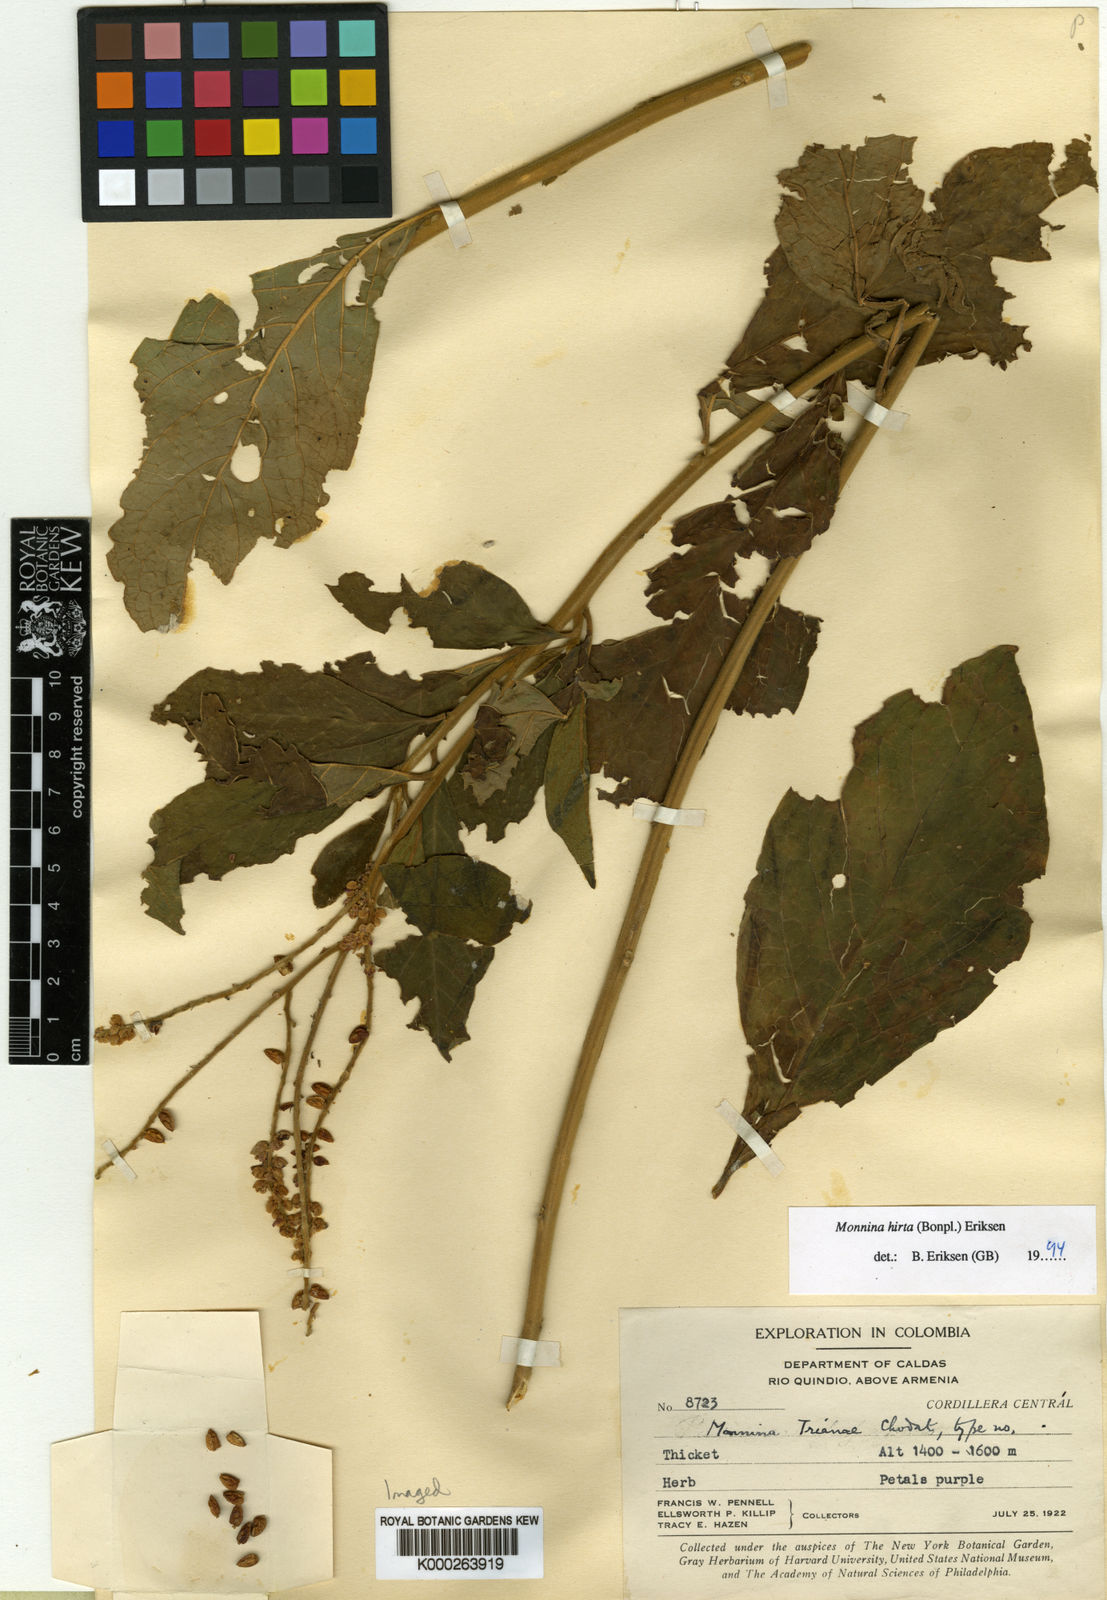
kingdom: Plantae
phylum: Tracheophyta
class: Magnoliopsida
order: Fabales
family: Polygalaceae
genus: Monnina
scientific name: Monnina polystachya
